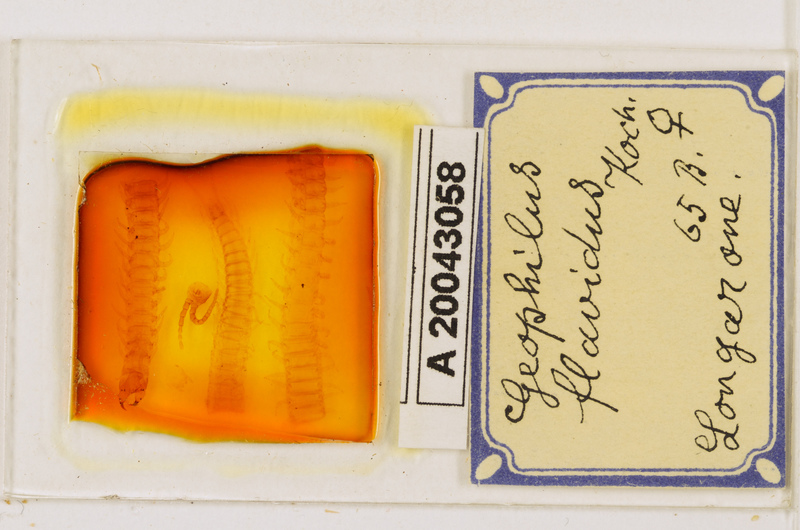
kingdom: Animalia
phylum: Arthropoda
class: Chilopoda
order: Geophilomorpha
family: Geophilidae
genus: Clinopodes
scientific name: Clinopodes flavidus
